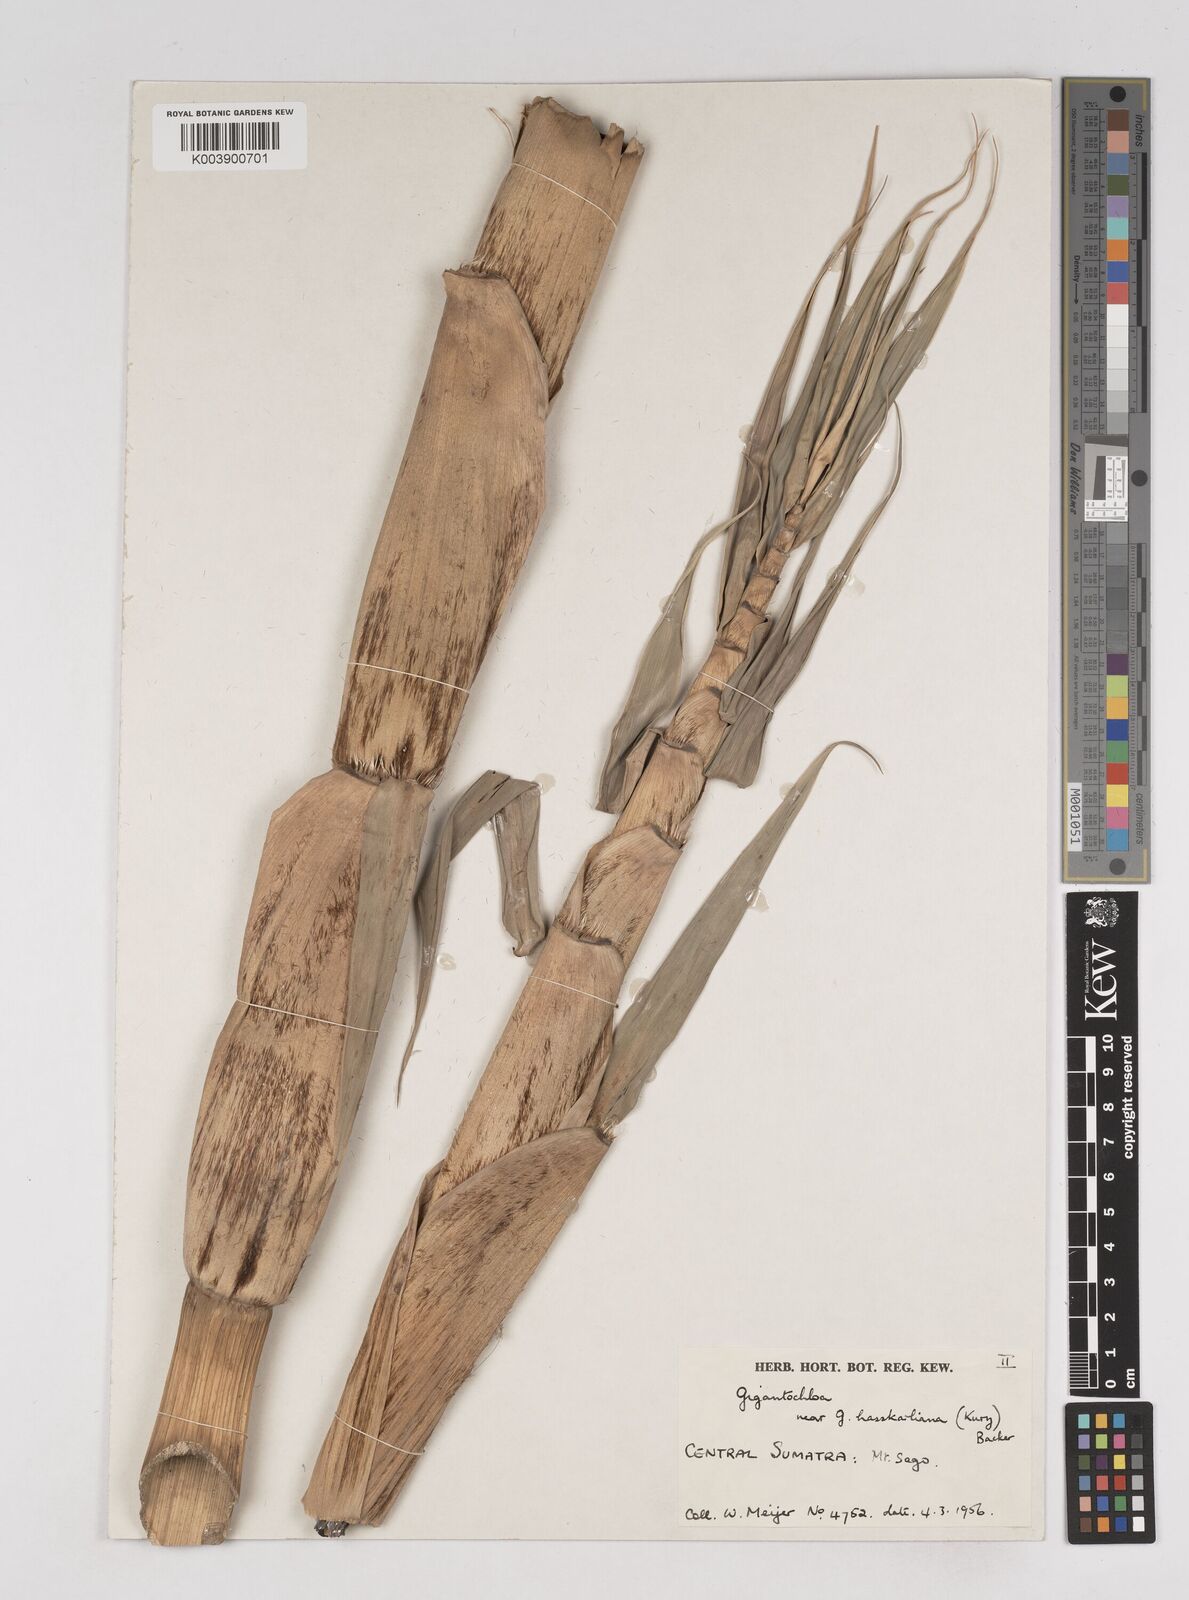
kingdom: Plantae
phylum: Tracheophyta
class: Liliopsida
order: Poales
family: Poaceae
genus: Gigantochloa
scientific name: Gigantochloa
